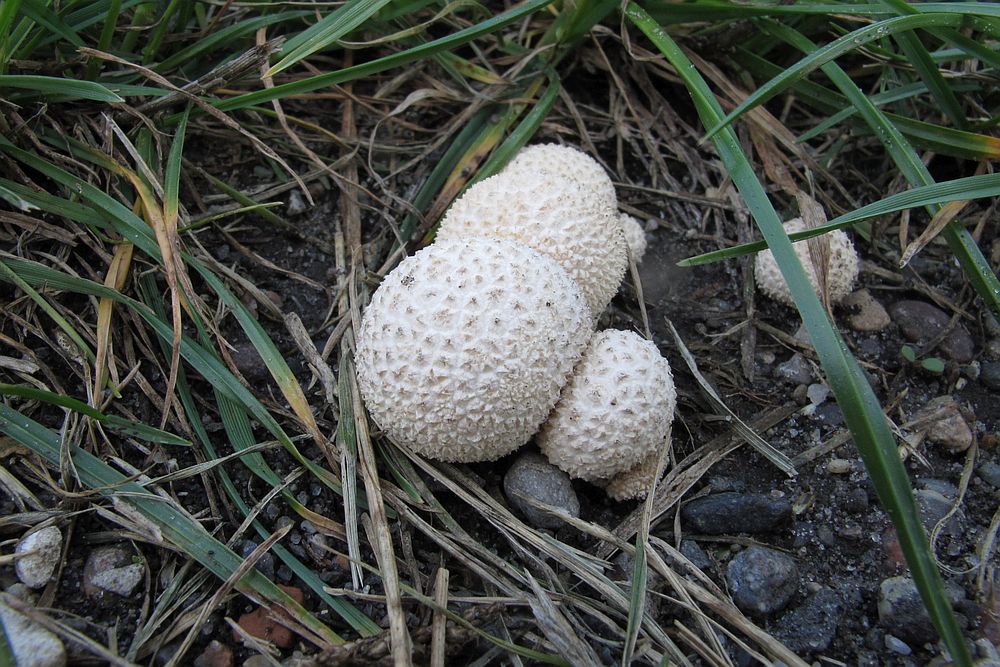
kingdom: Fungi
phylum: Basidiomycota
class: Agaricomycetes
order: Agaricales
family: Lycoperdaceae
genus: Lycoperdon
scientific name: Lycoperdon perlatum
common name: krystal-støvbold
